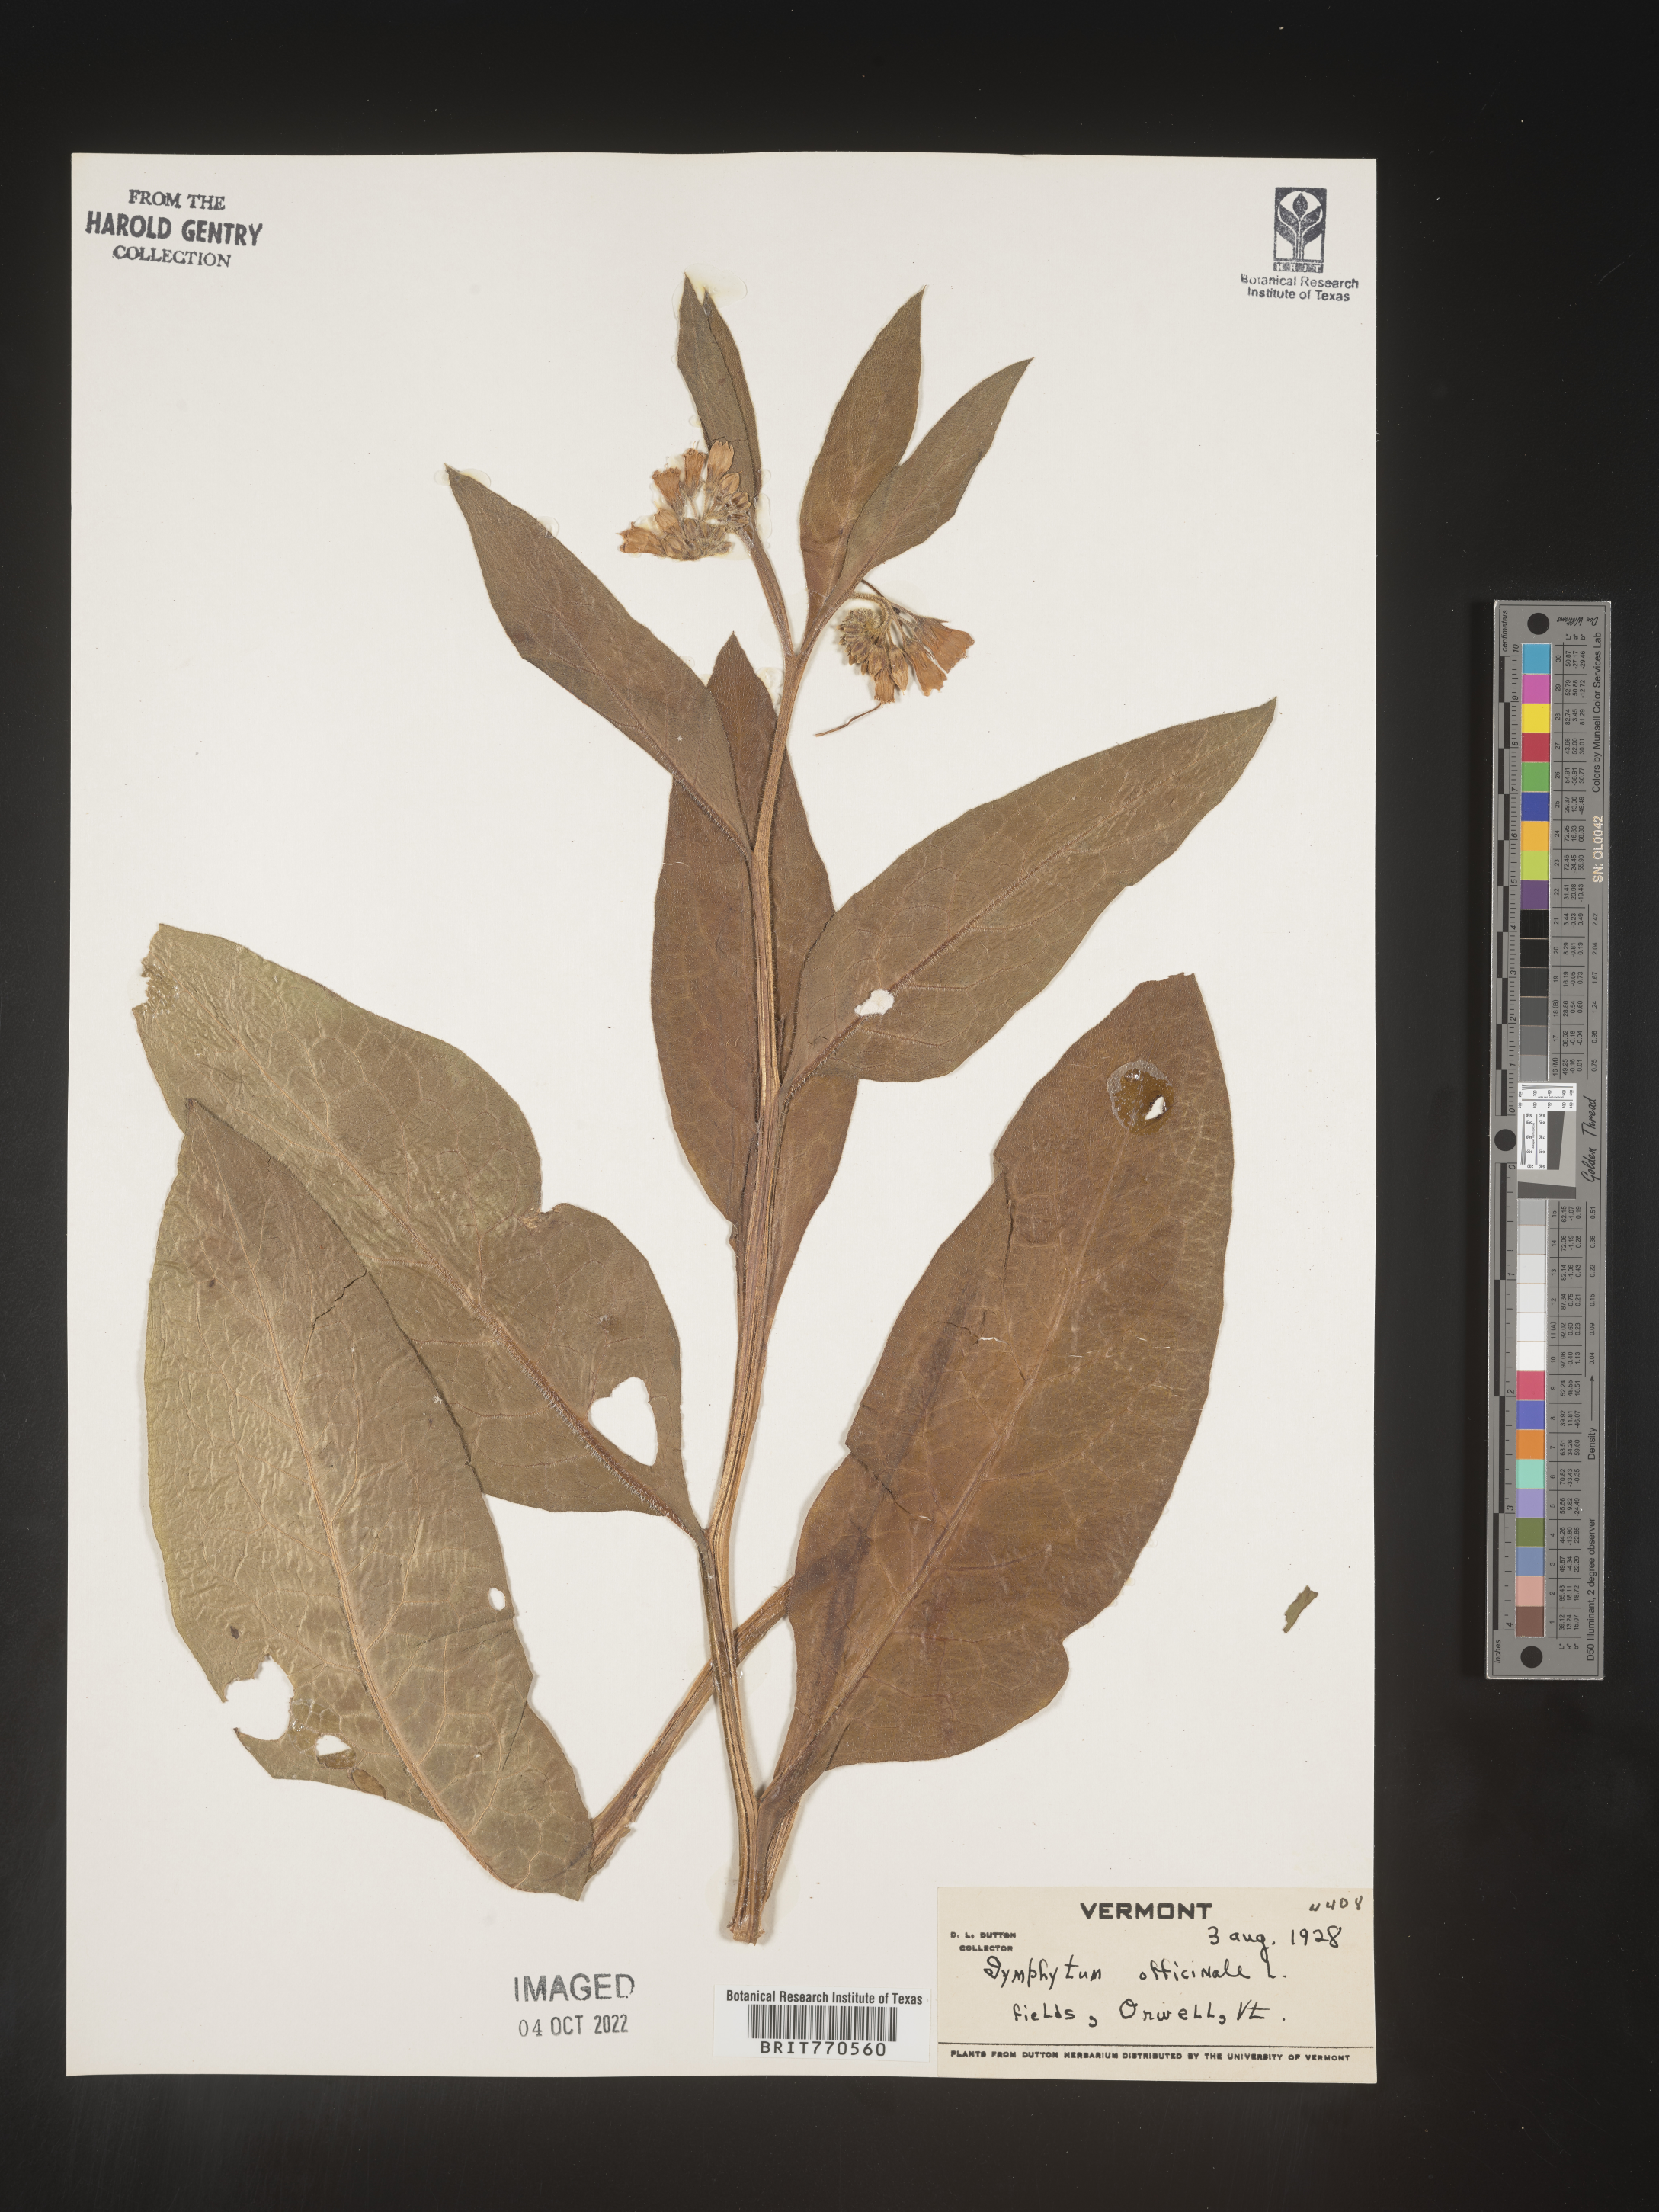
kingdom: Plantae
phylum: Tracheophyta
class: Magnoliopsida
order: Boraginales
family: Boraginaceae
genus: Symphytum
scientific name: Symphytum
